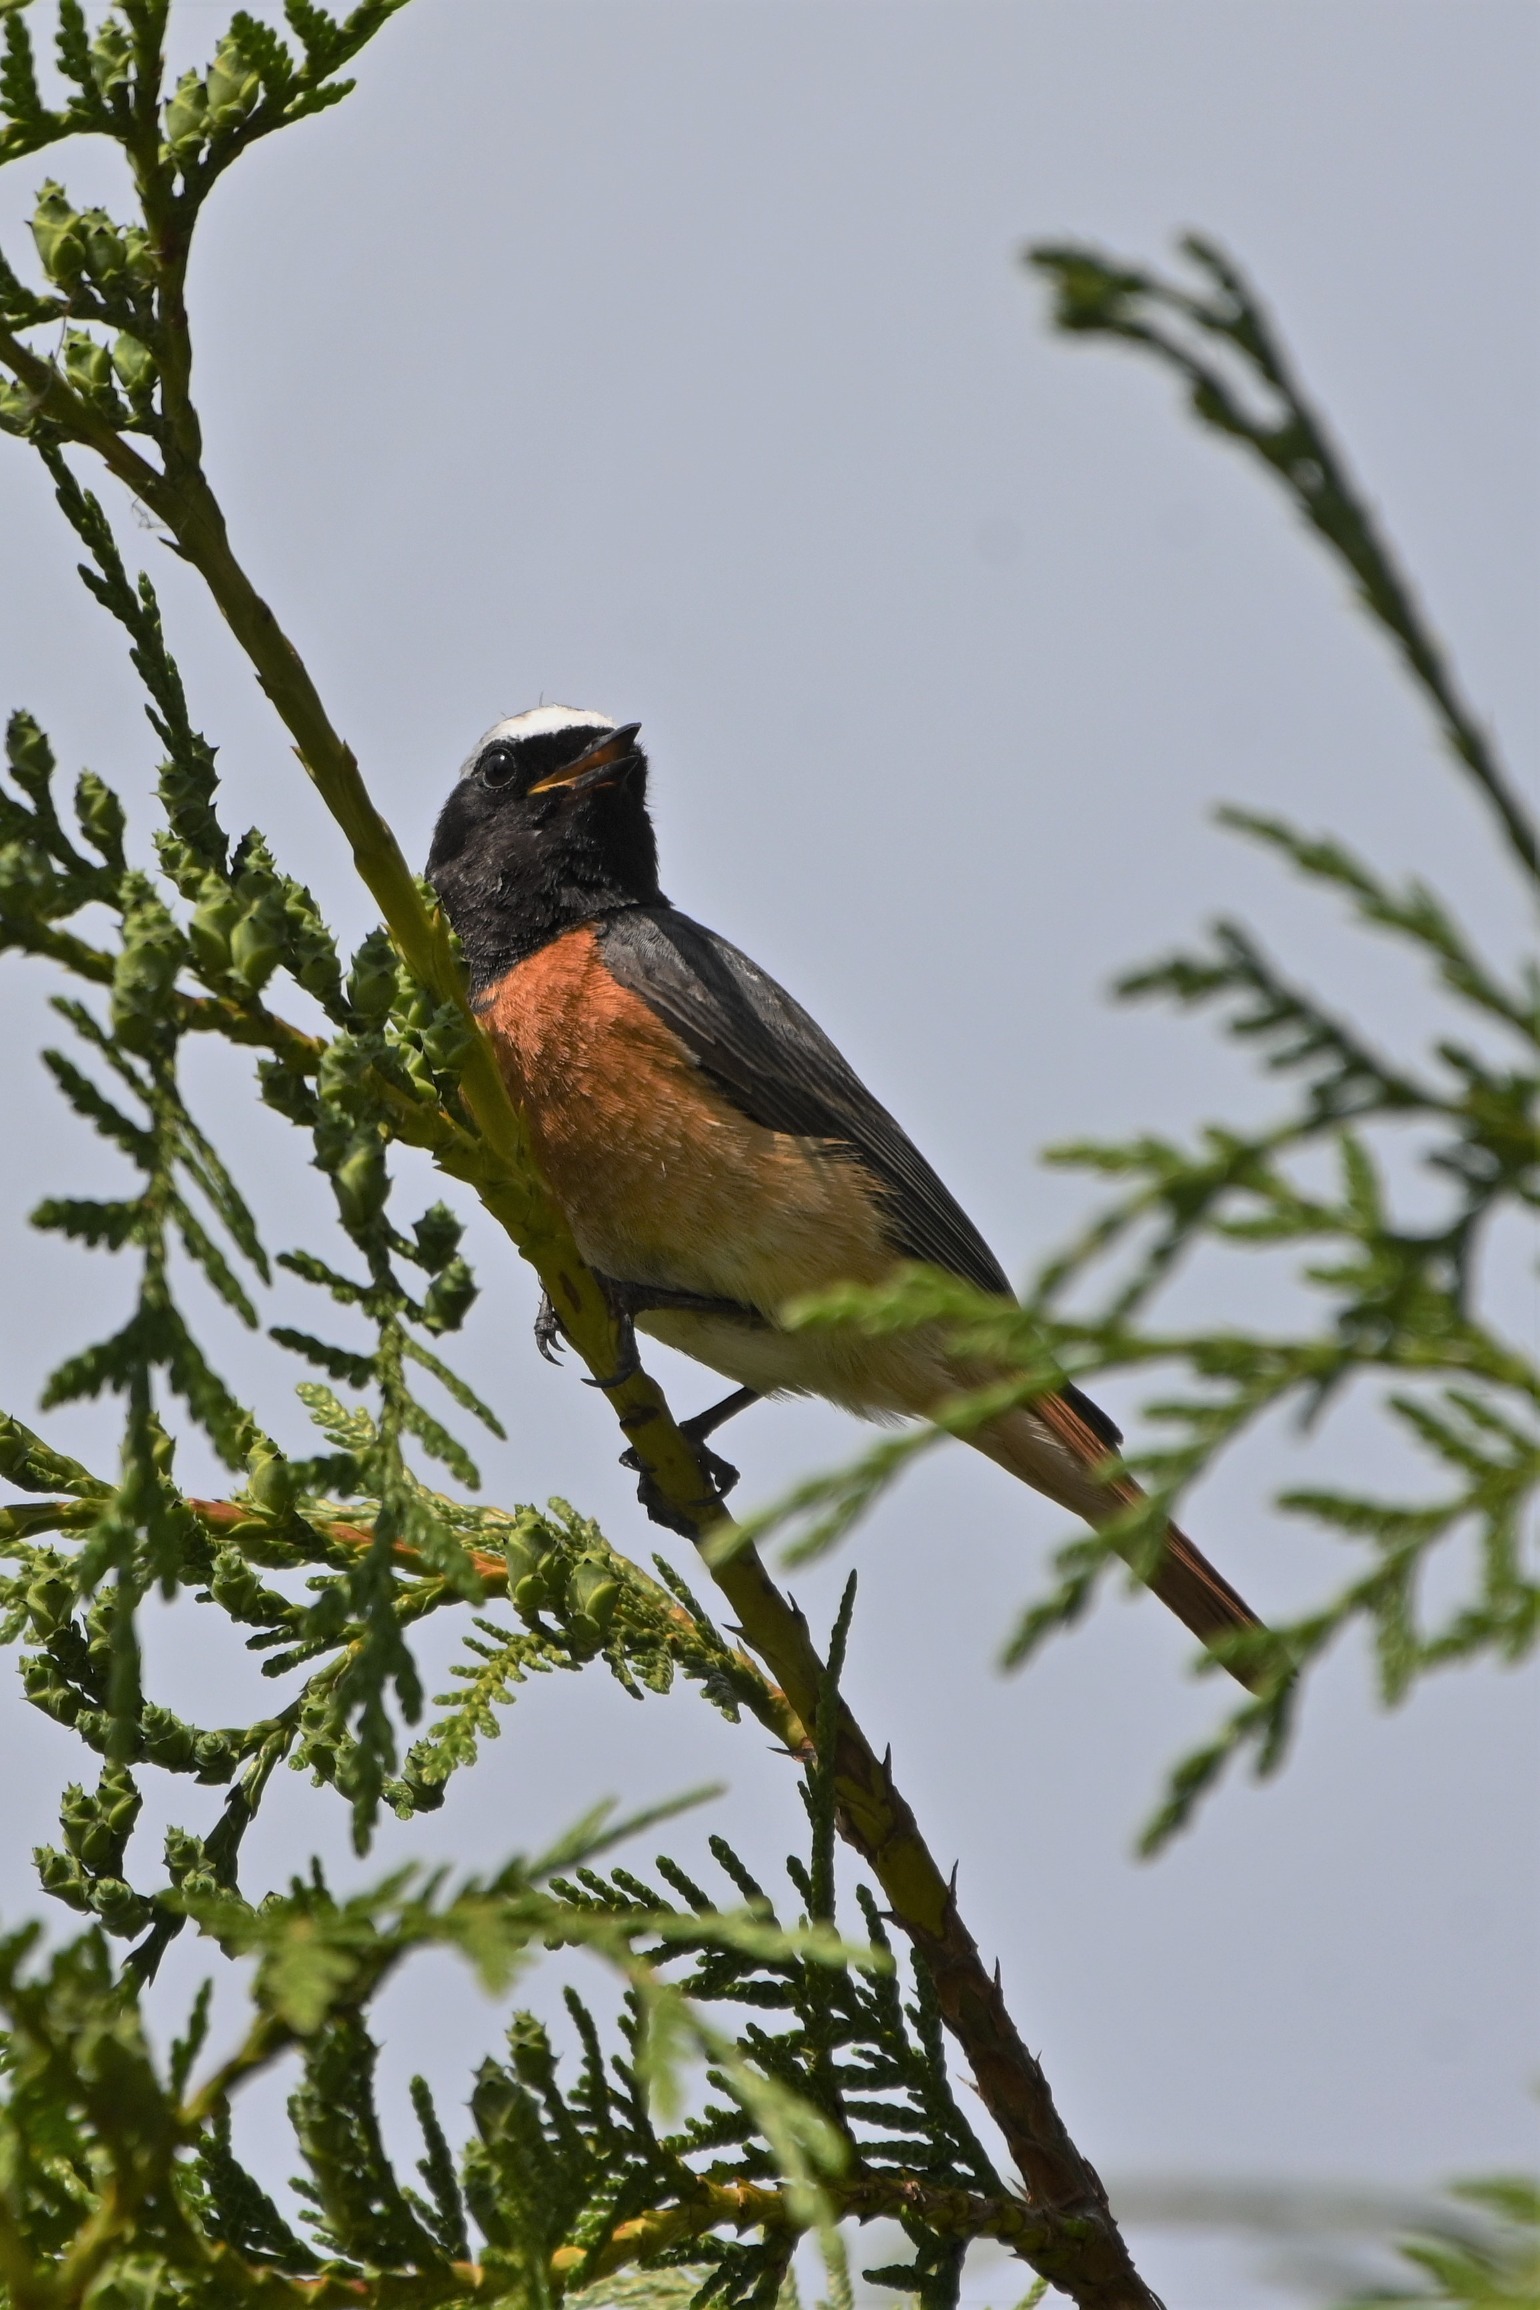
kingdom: Animalia
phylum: Chordata
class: Aves
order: Passeriformes
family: Muscicapidae
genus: Phoenicurus
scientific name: Phoenicurus phoenicurus
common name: Rødstjert
